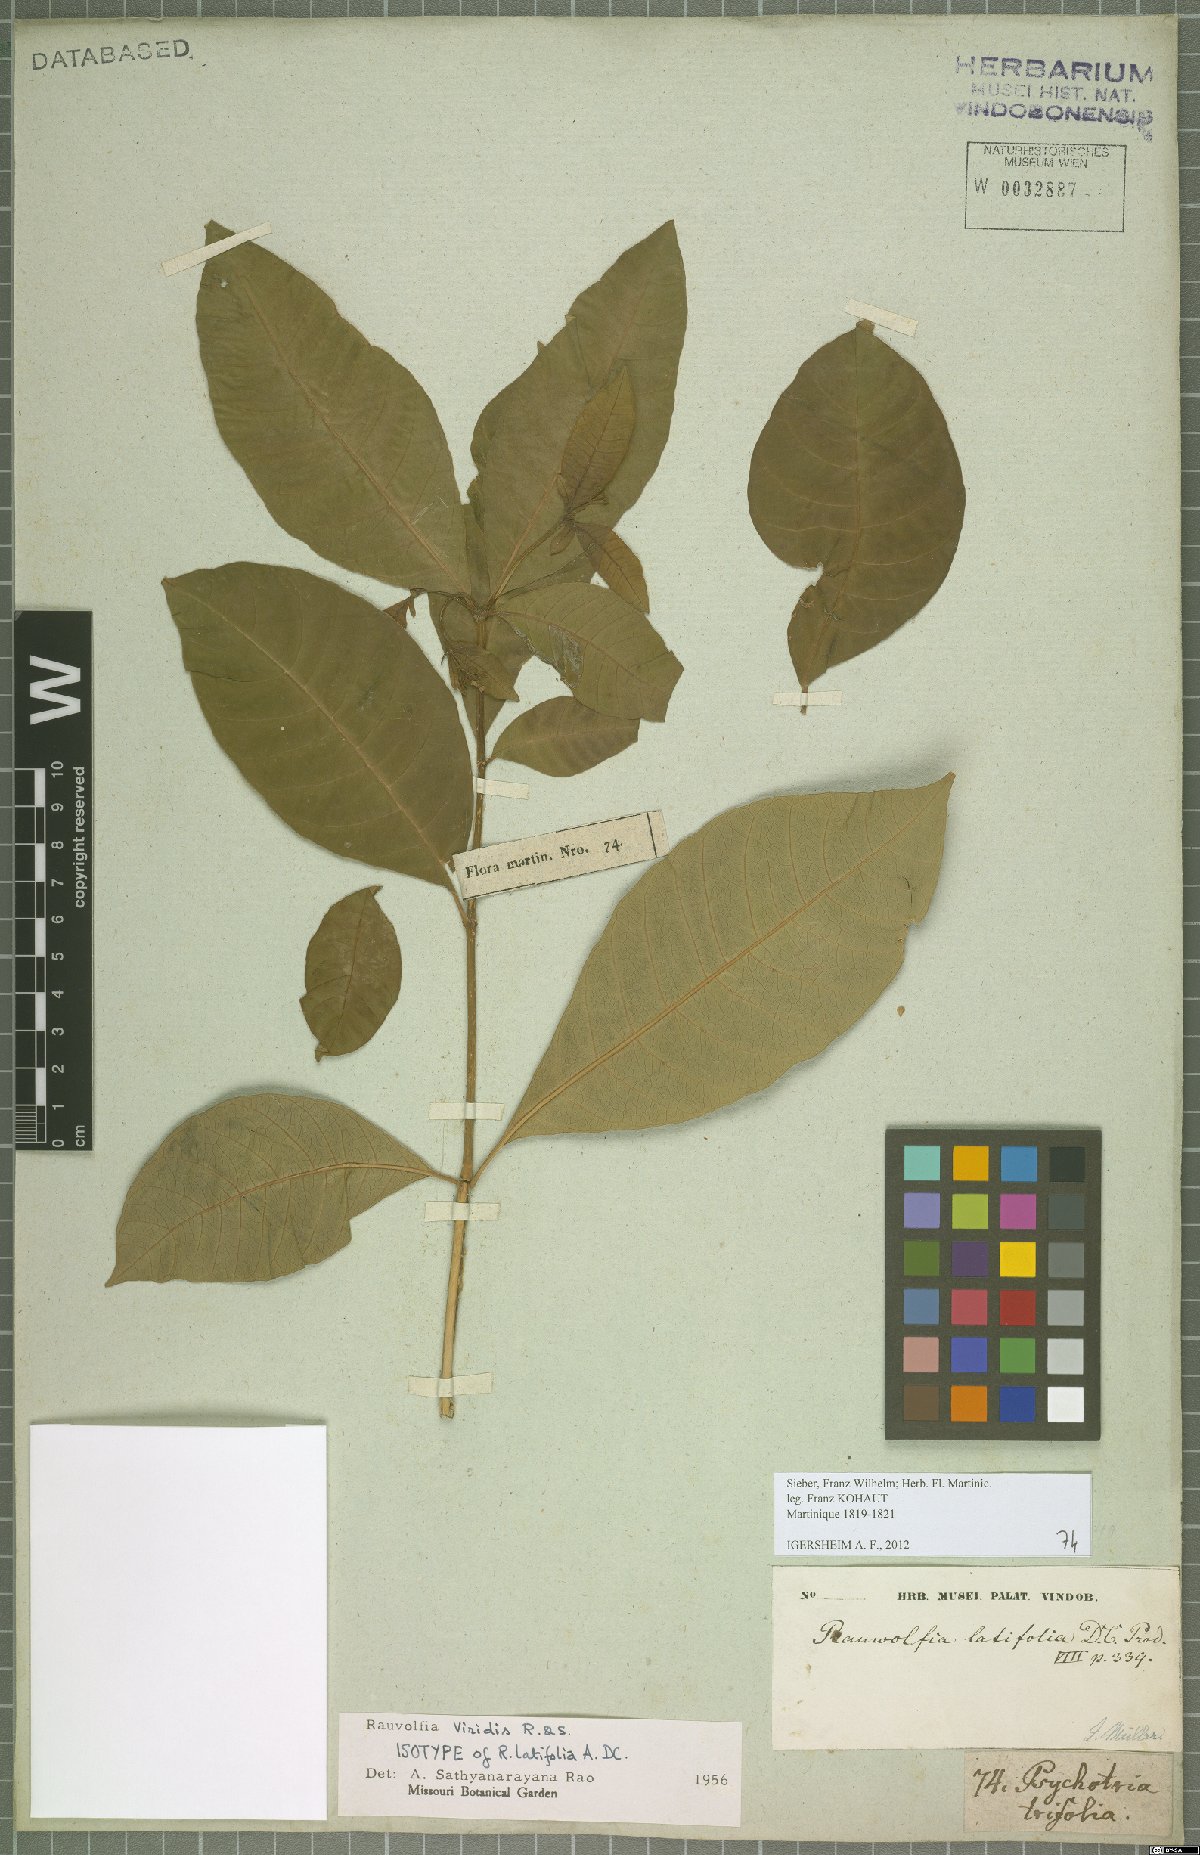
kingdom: Plantae
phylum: Tracheophyta
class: Magnoliopsida
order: Gentianales
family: Apocynaceae
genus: Rauvolfia
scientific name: Rauvolfia viridis
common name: Bellyache
